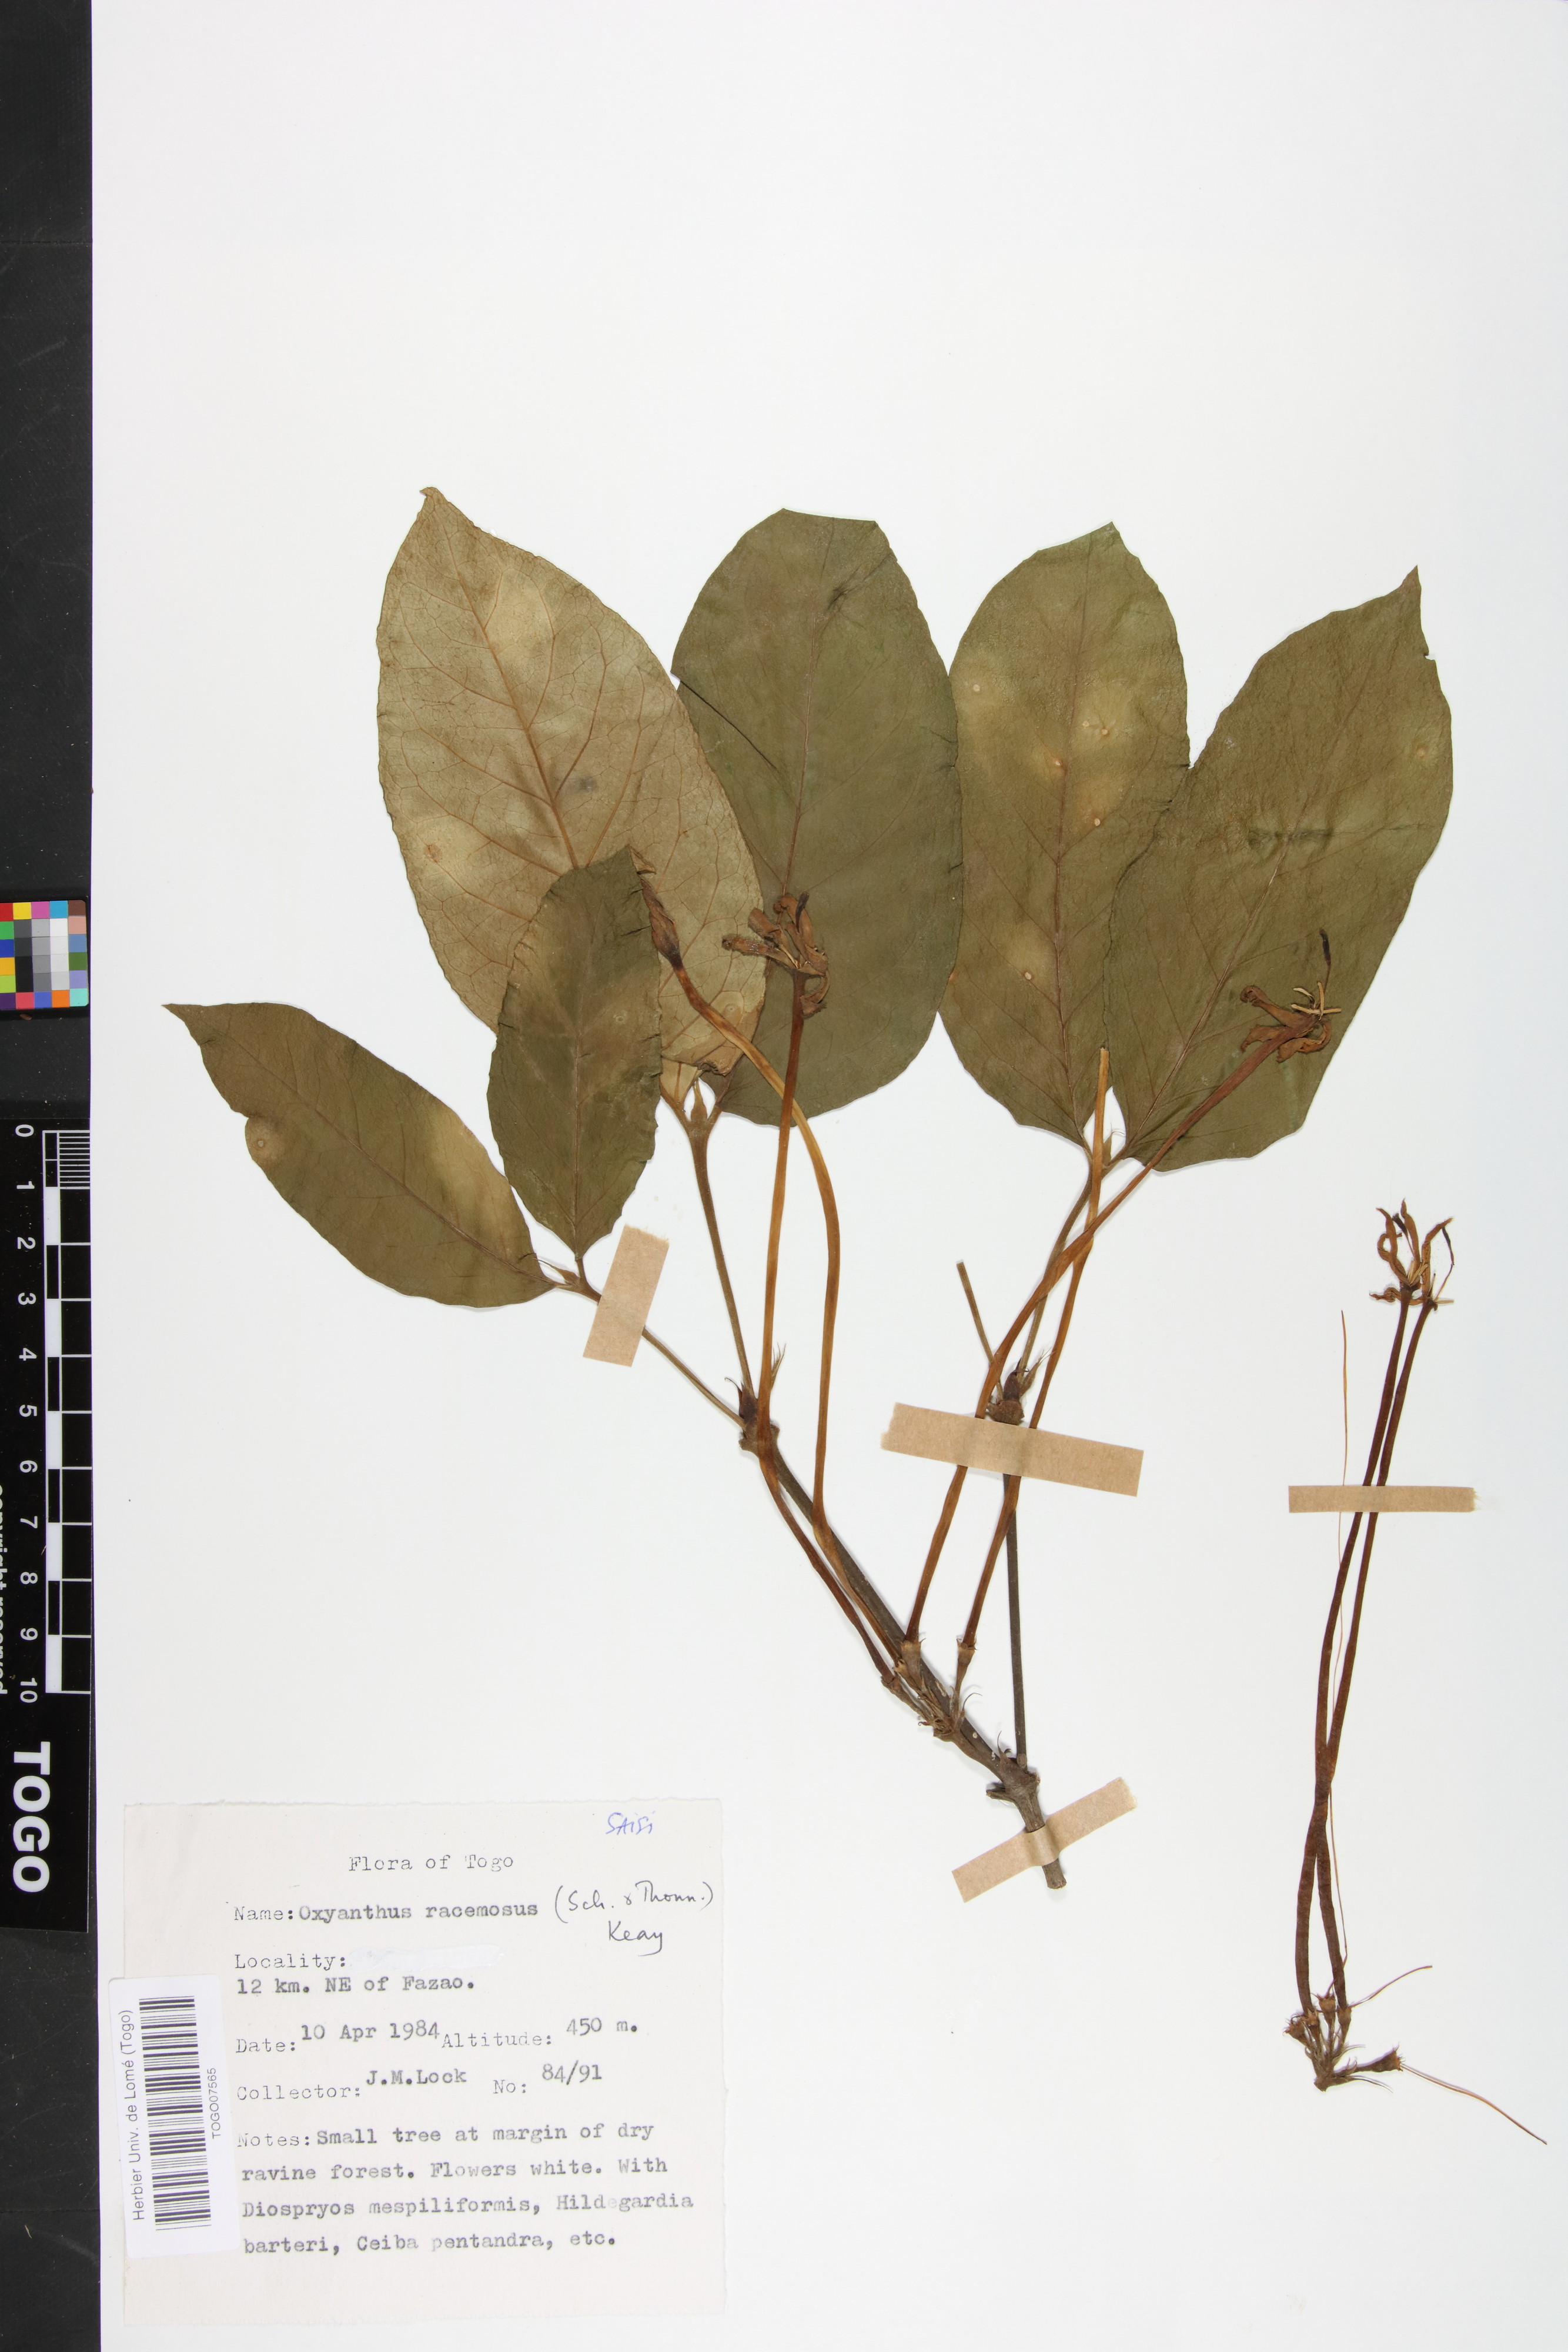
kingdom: Plantae
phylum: Tracheophyta
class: Magnoliopsida
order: Gentianales
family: Rubiaceae
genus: Oxyanthus
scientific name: Oxyanthus racemosus
